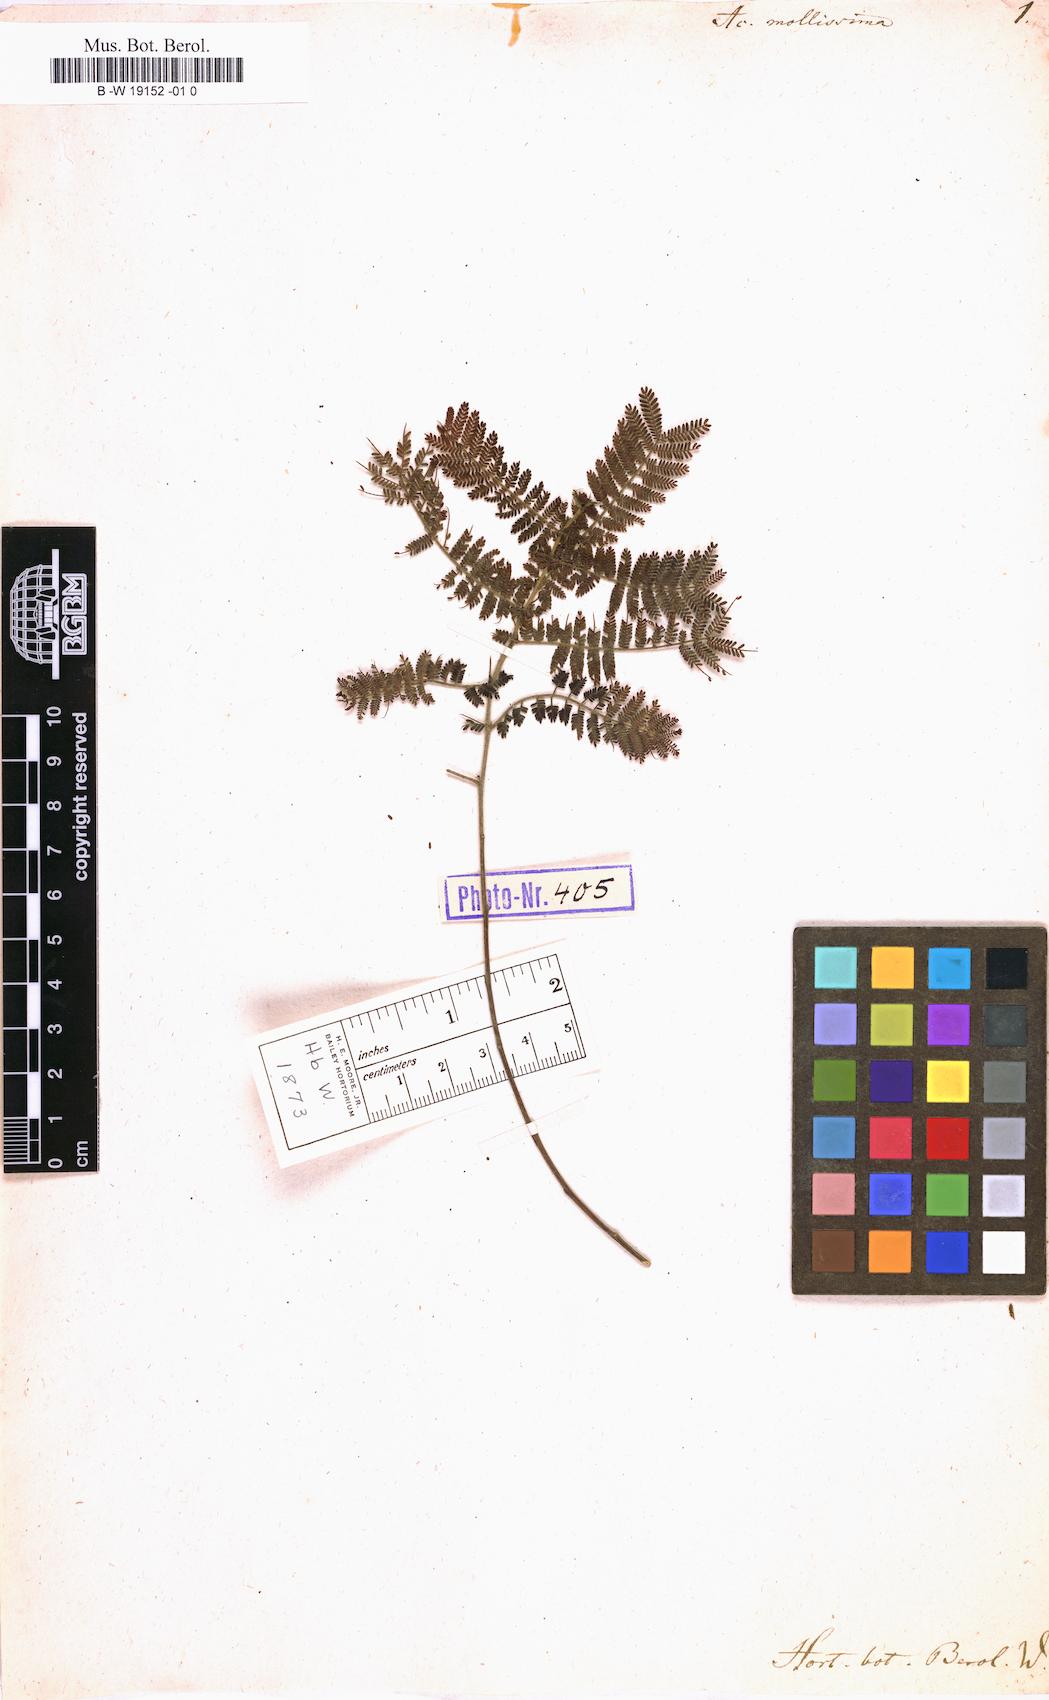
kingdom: Plantae
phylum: Tracheophyta
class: Magnoliopsida
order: Fabales
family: Fabaceae
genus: Acacia
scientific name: Acacia pubescens
